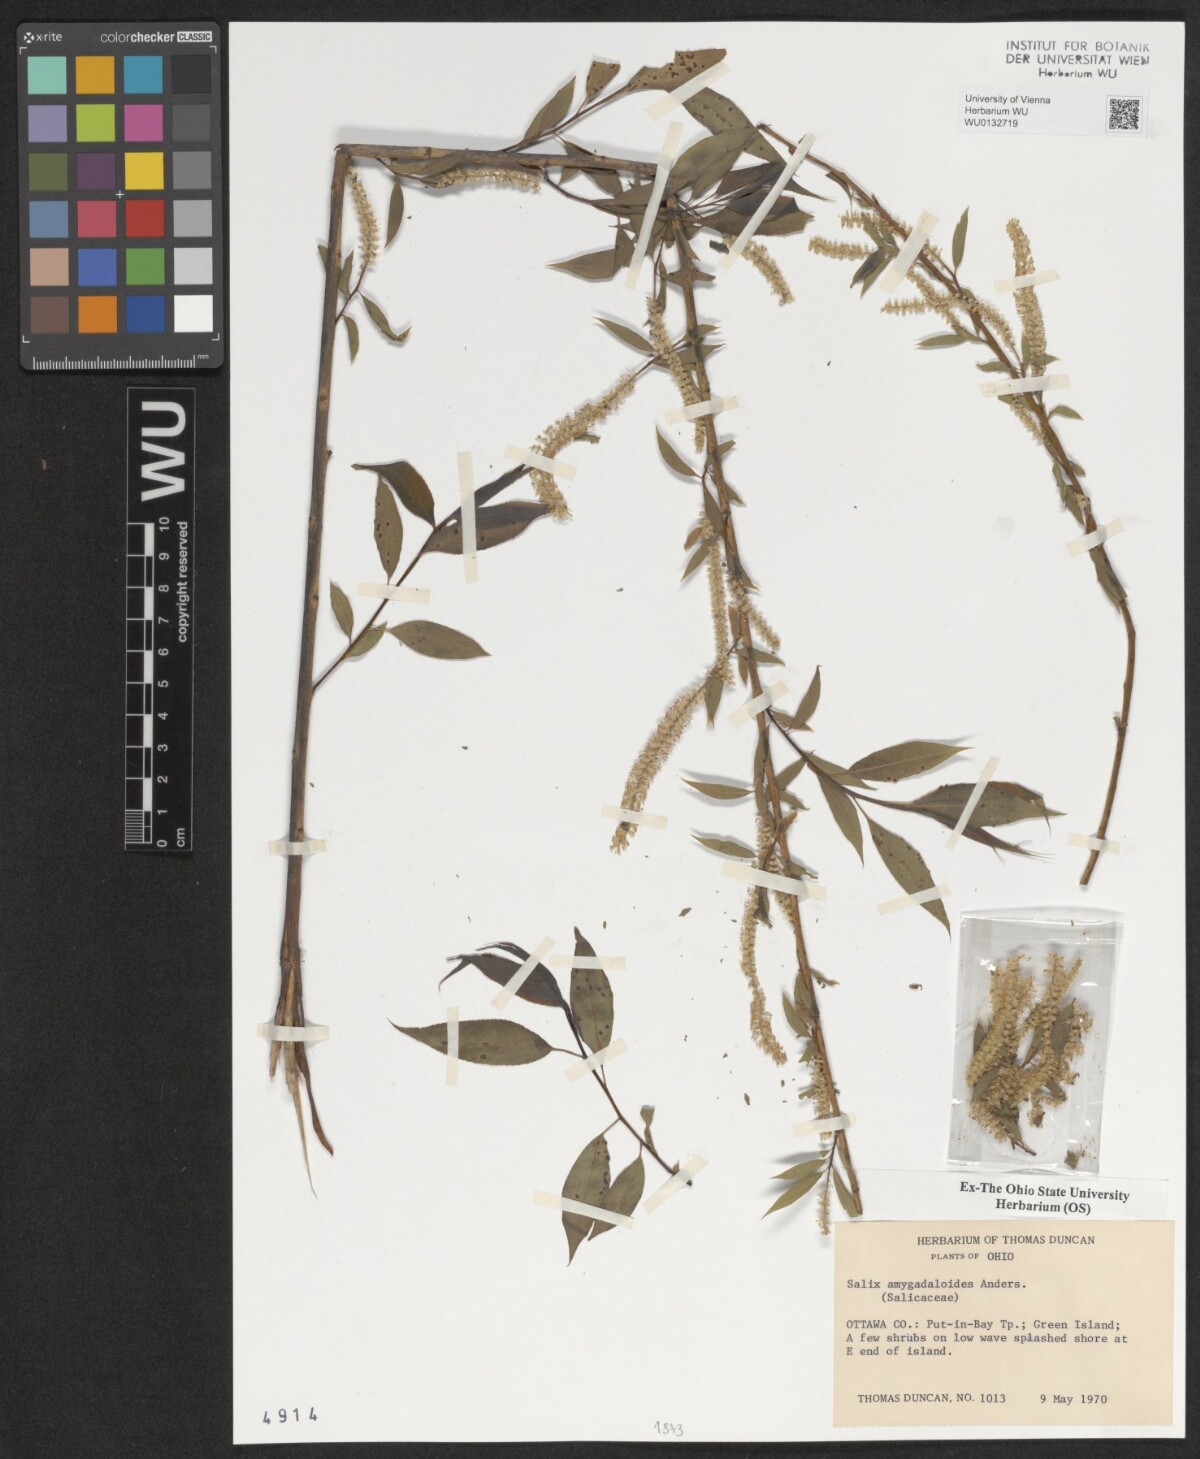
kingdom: Plantae
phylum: Tracheophyta
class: Magnoliopsida
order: Malpighiales
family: Salicaceae
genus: Salix
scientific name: Salix amygdaloides
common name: Peach leaf willow
